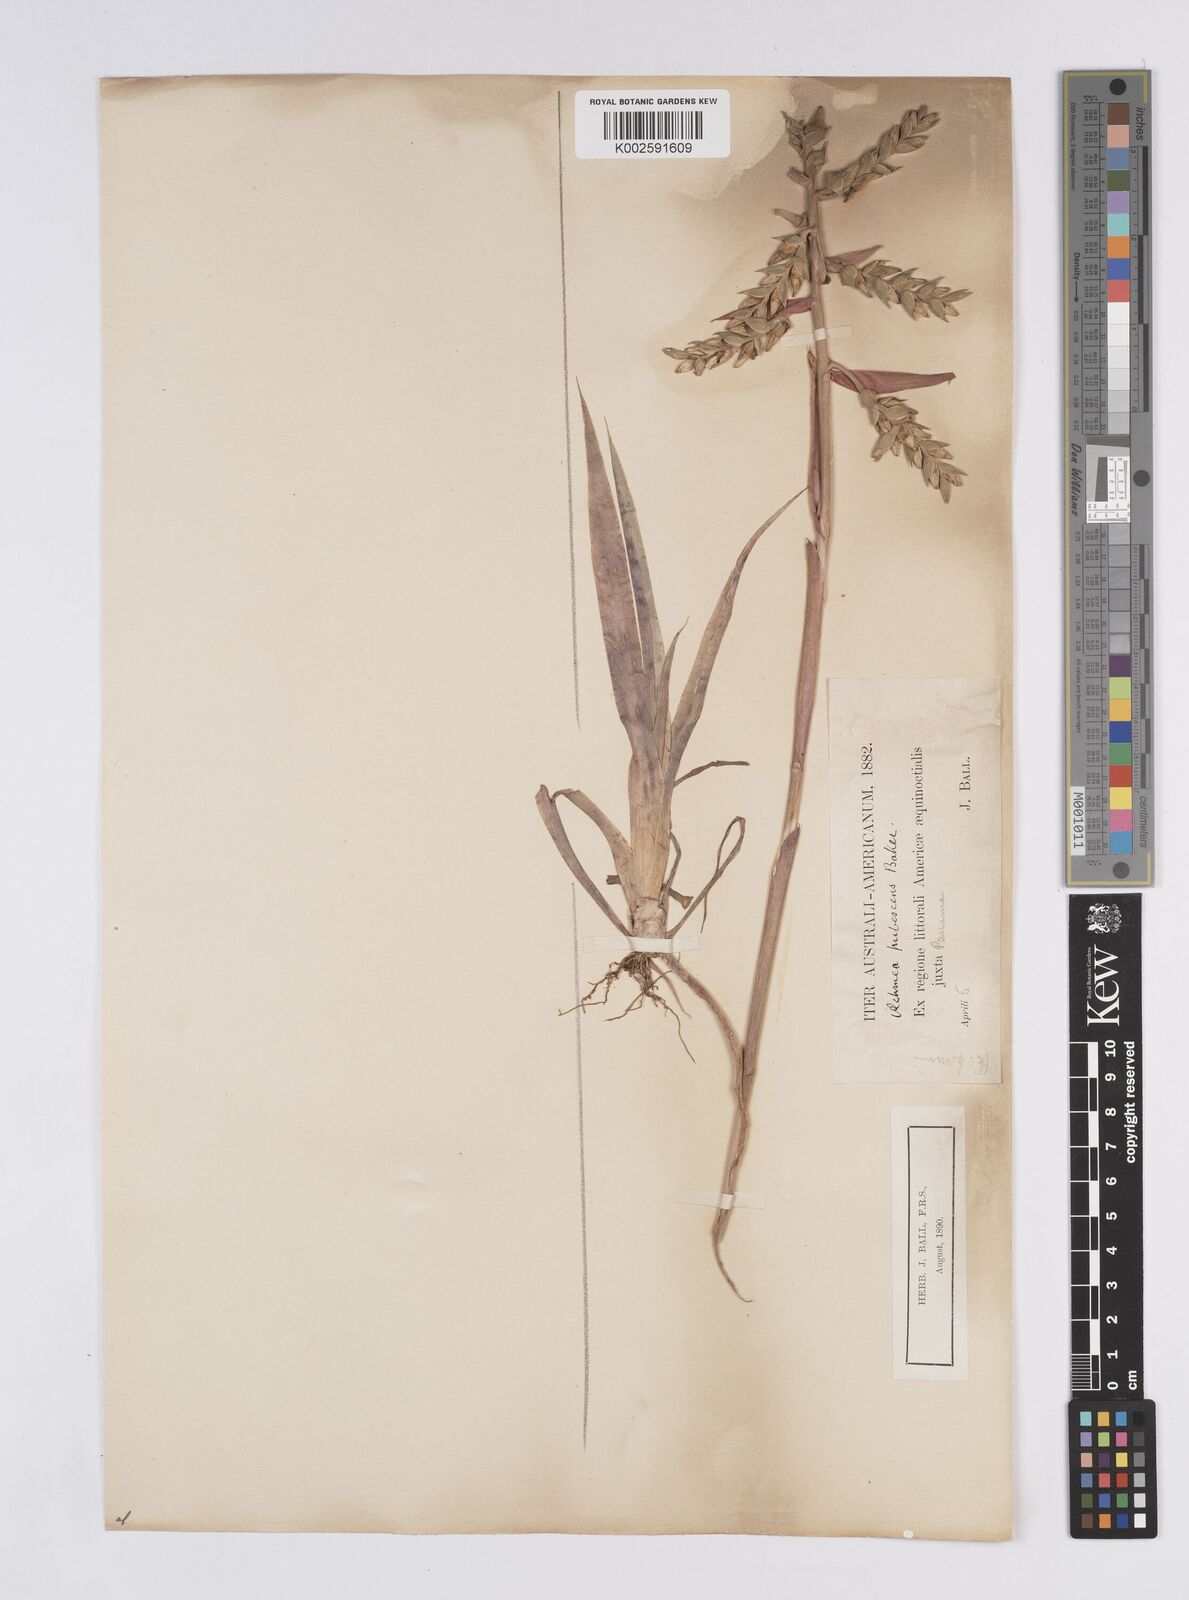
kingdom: Plantae
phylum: Tracheophyta
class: Liliopsida
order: Poales
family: Bromeliaceae
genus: Aechmea
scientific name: Aechmea pubescens
